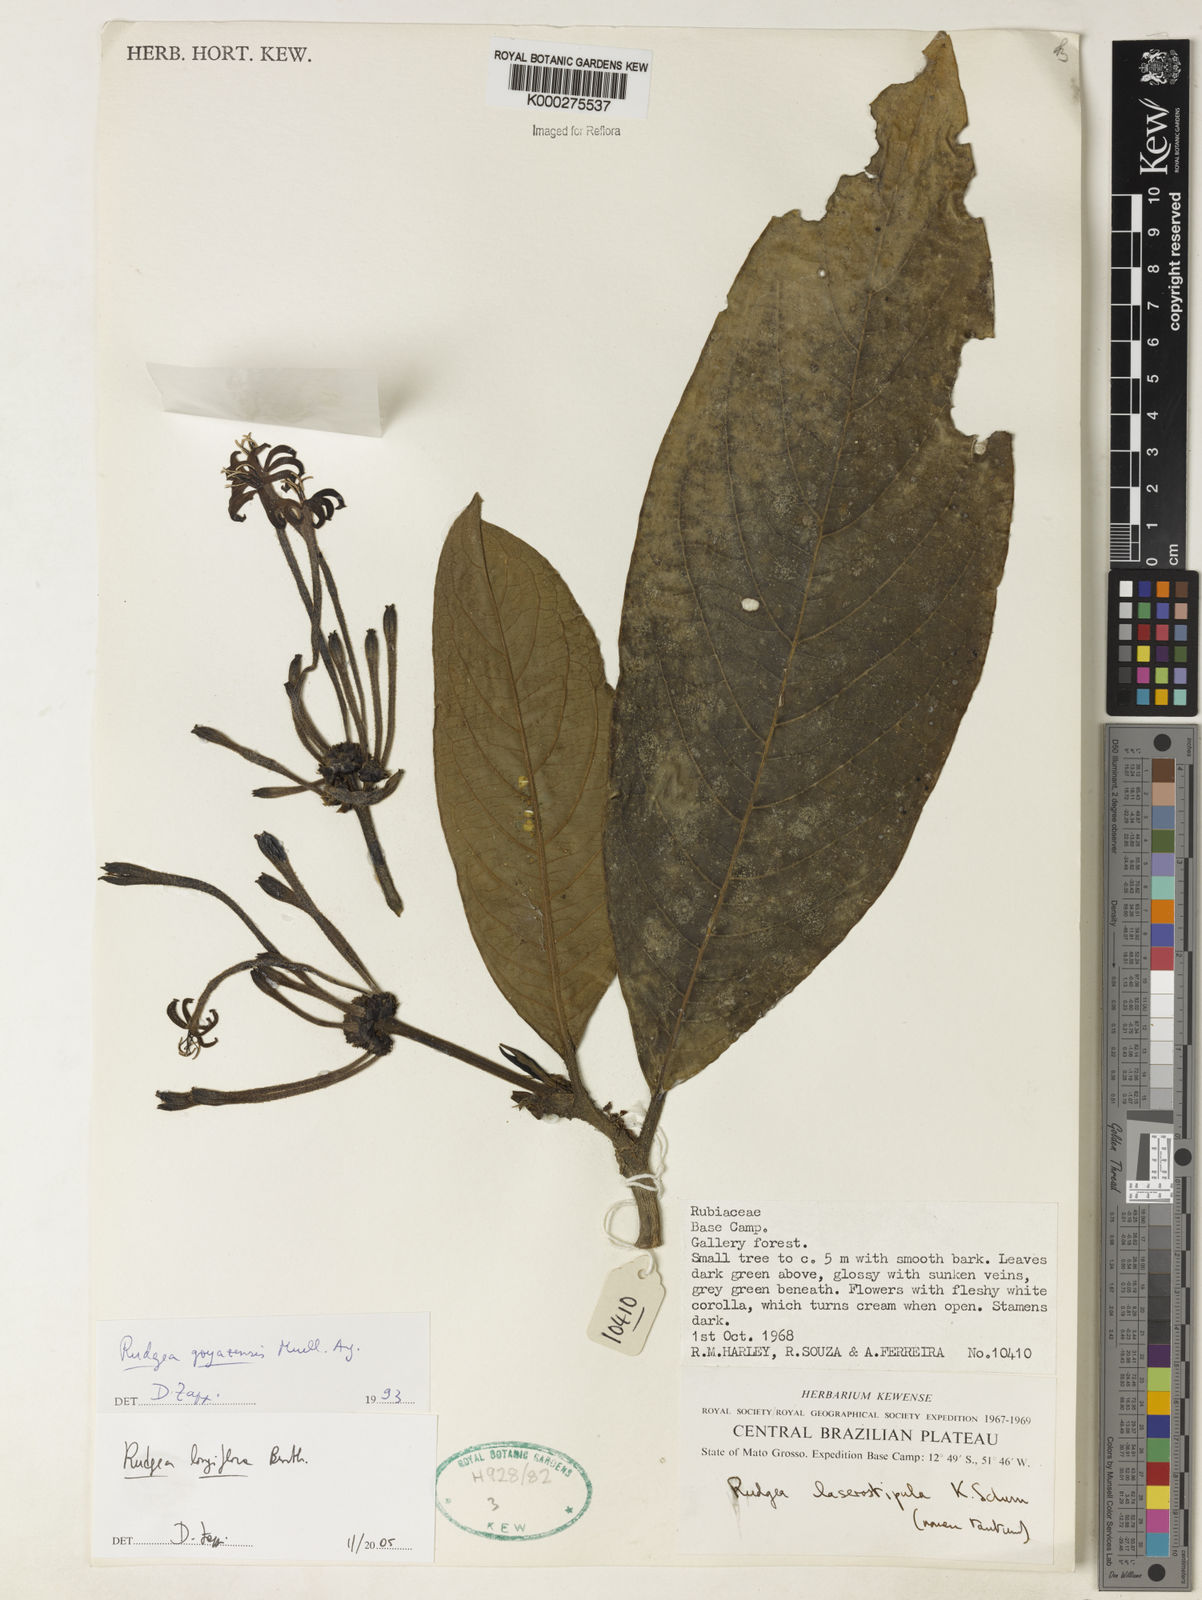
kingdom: Plantae
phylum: Tracheophyta
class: Magnoliopsida
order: Gentianales
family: Rubiaceae
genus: Rudgea
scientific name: Rudgea
